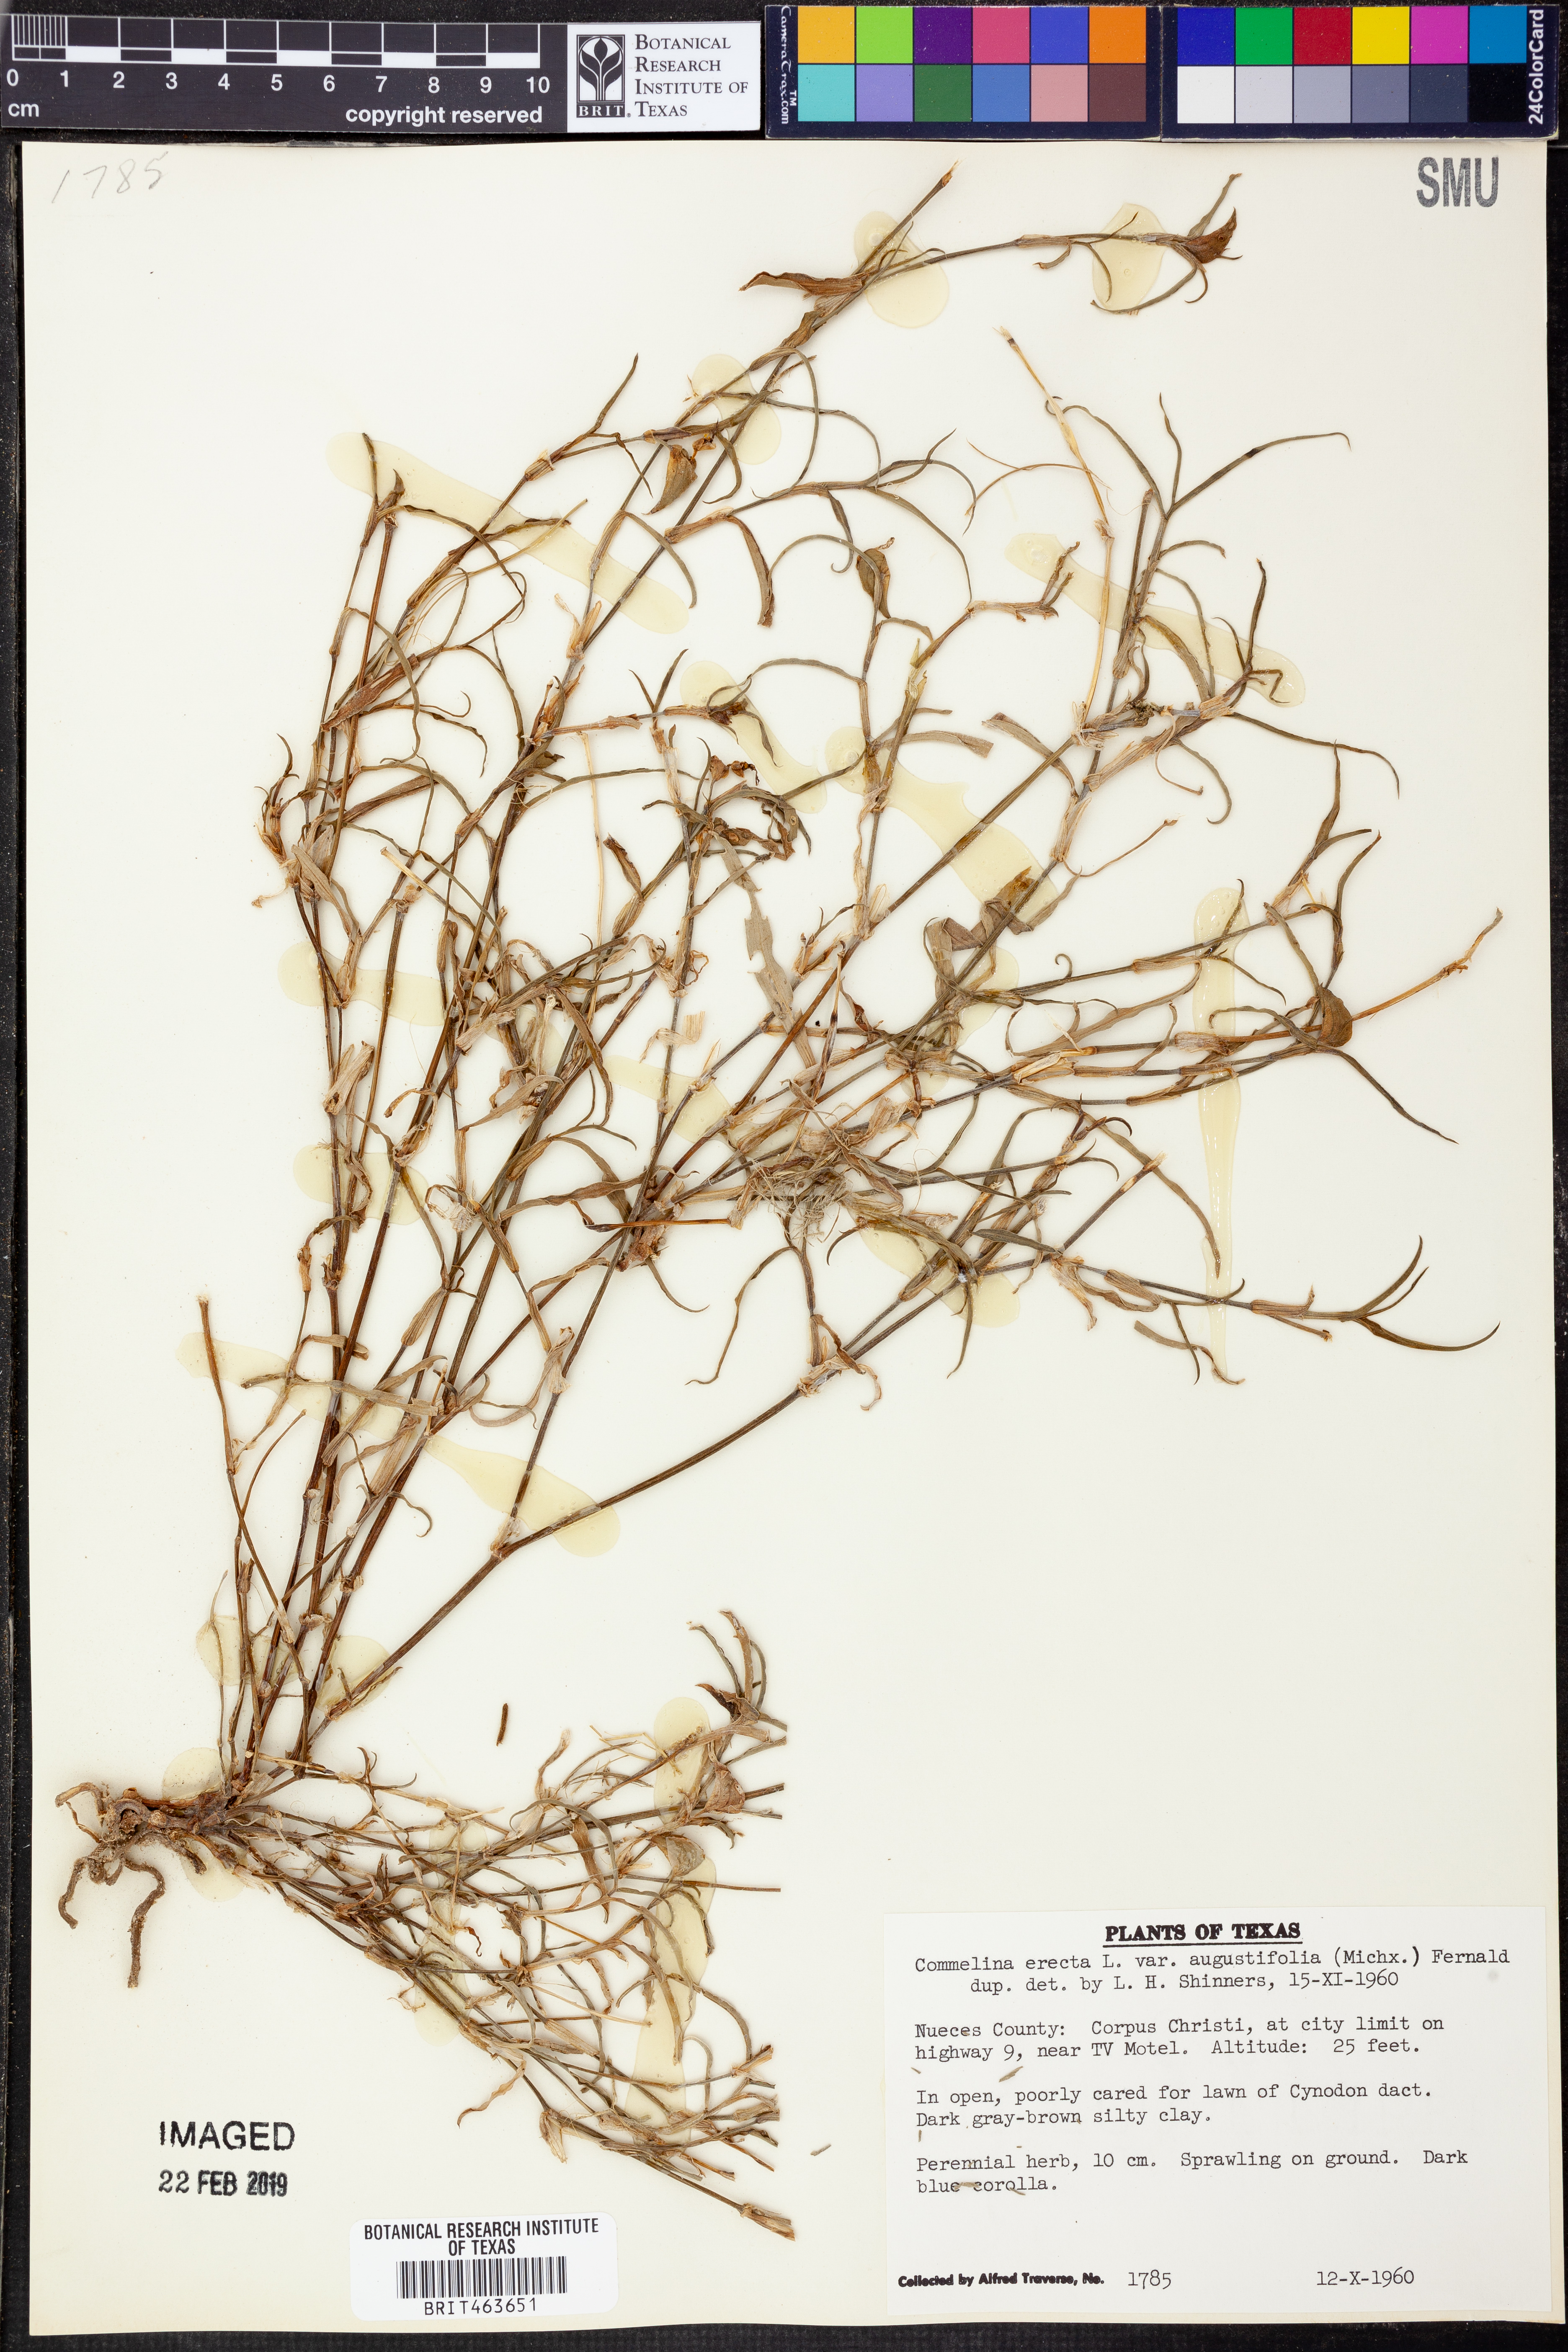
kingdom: Plantae
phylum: Tracheophyta
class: Liliopsida
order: Commelinales
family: Commelinaceae
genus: Commelina
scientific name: Commelina erecta
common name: Blousel blommetjie
